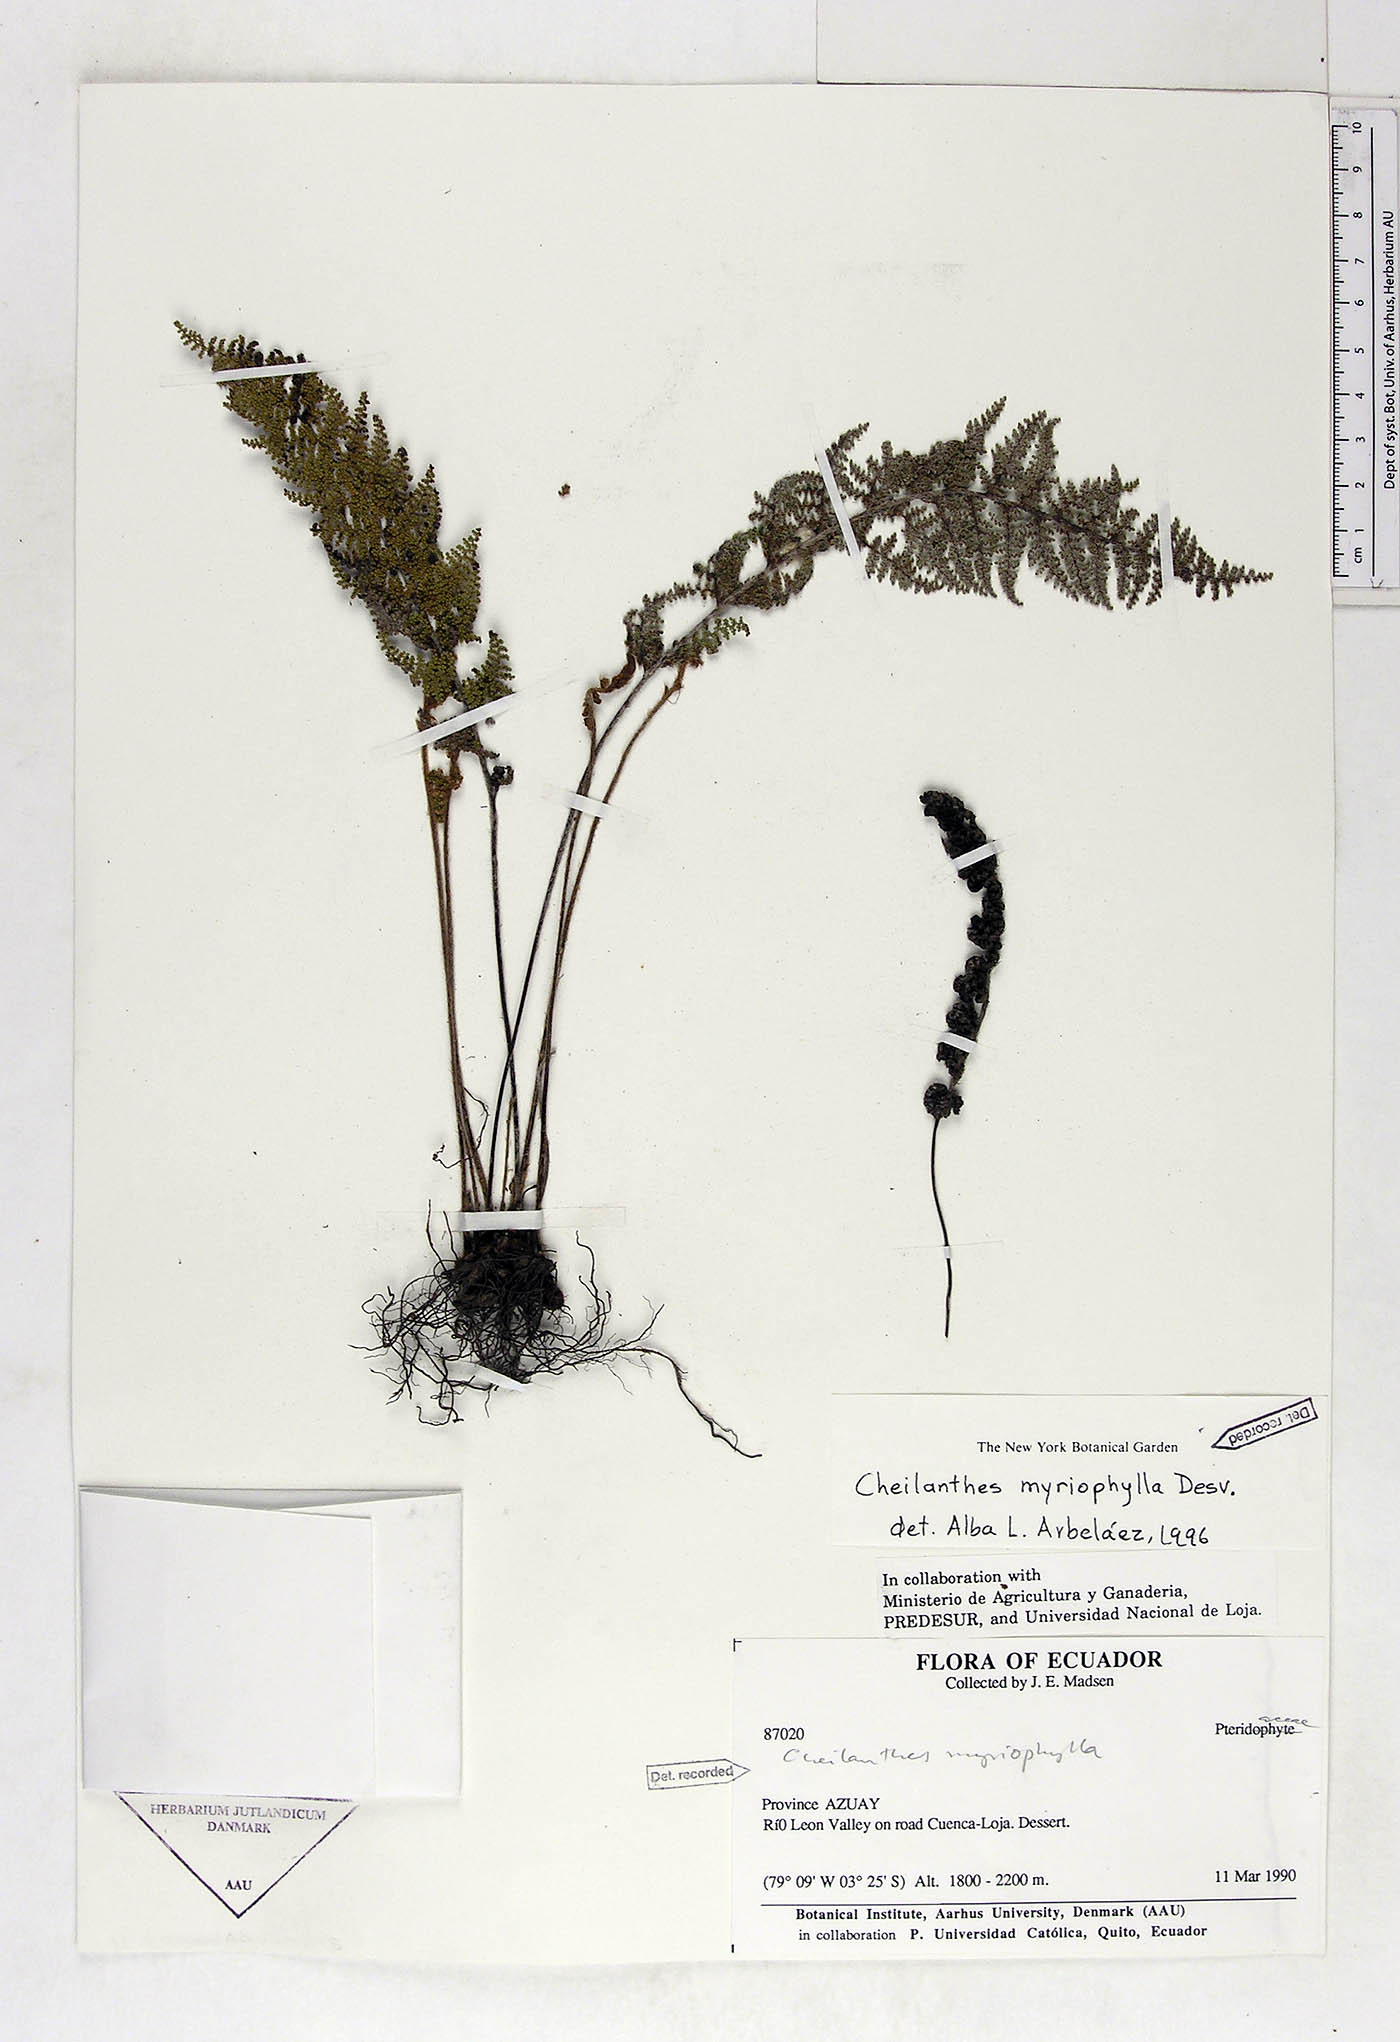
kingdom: Plantae
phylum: Tracheophyta
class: Polypodiopsida
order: Polypodiales
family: Pteridaceae
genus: Myriopteris
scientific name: Myriopteris myriophylla
